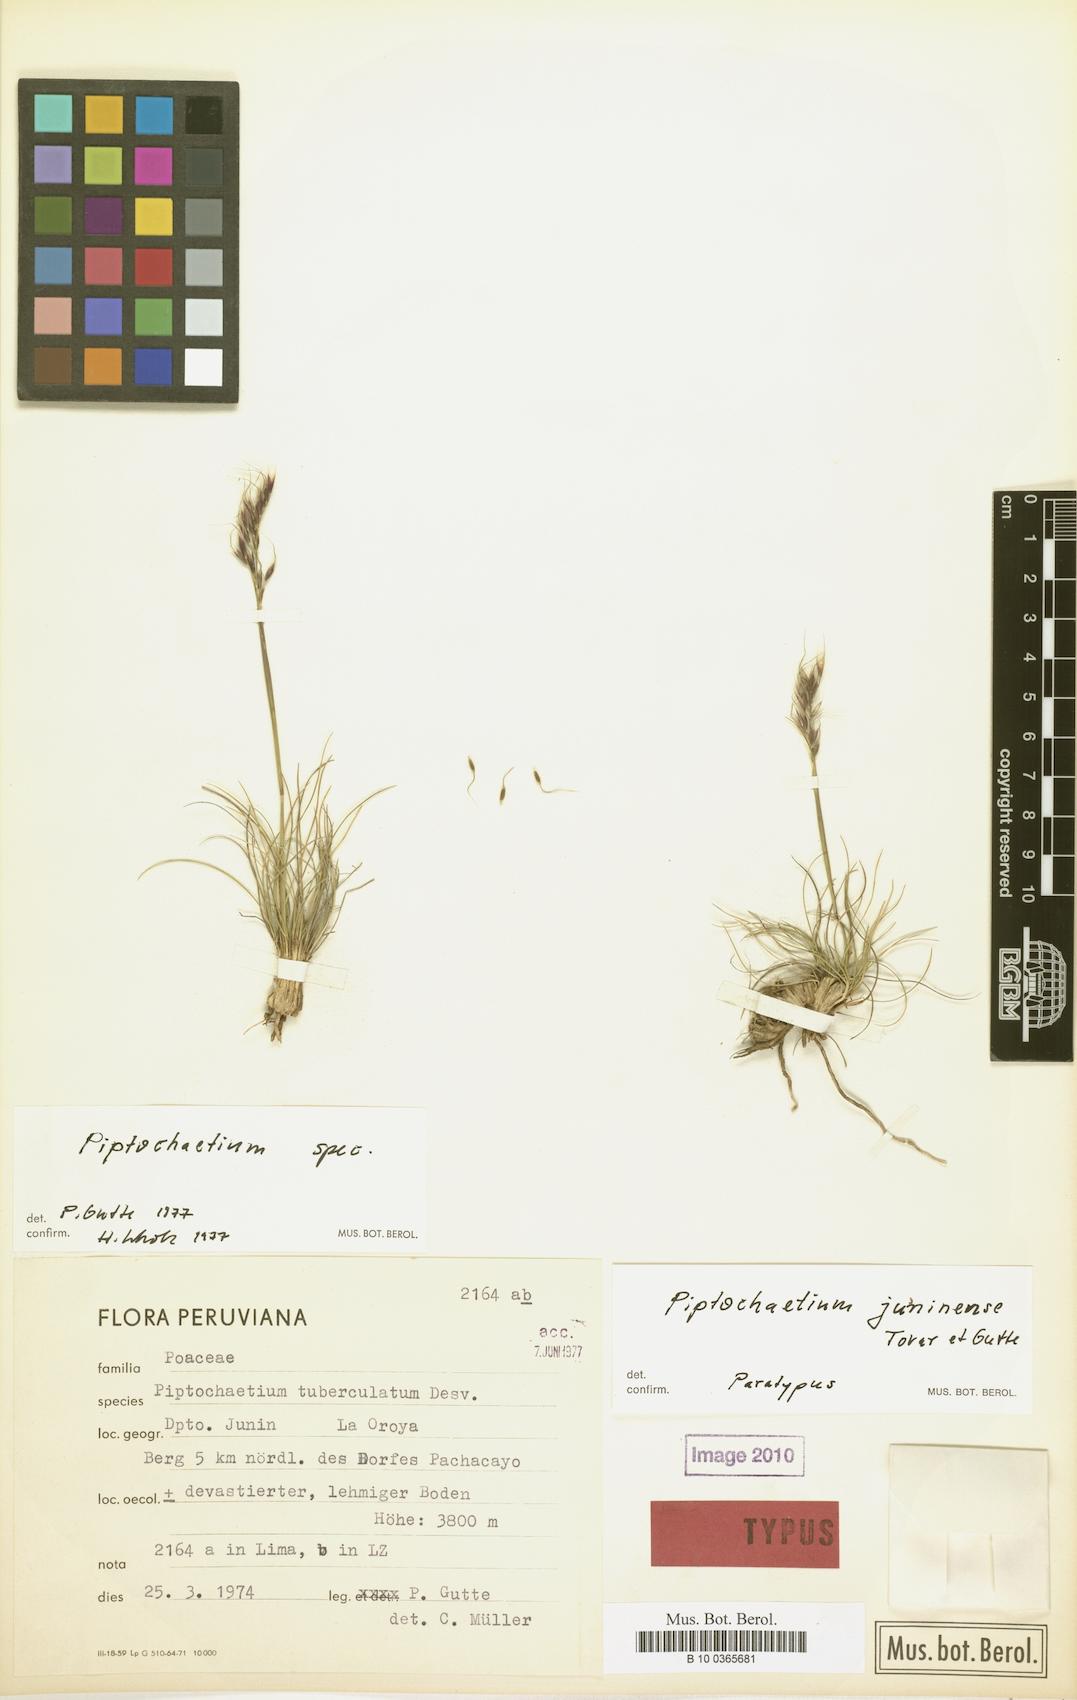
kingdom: Plantae
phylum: Tracheophyta
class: Liliopsida
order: Poales
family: Poaceae
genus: Piptochaetium
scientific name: Piptochaetium featherstonei
